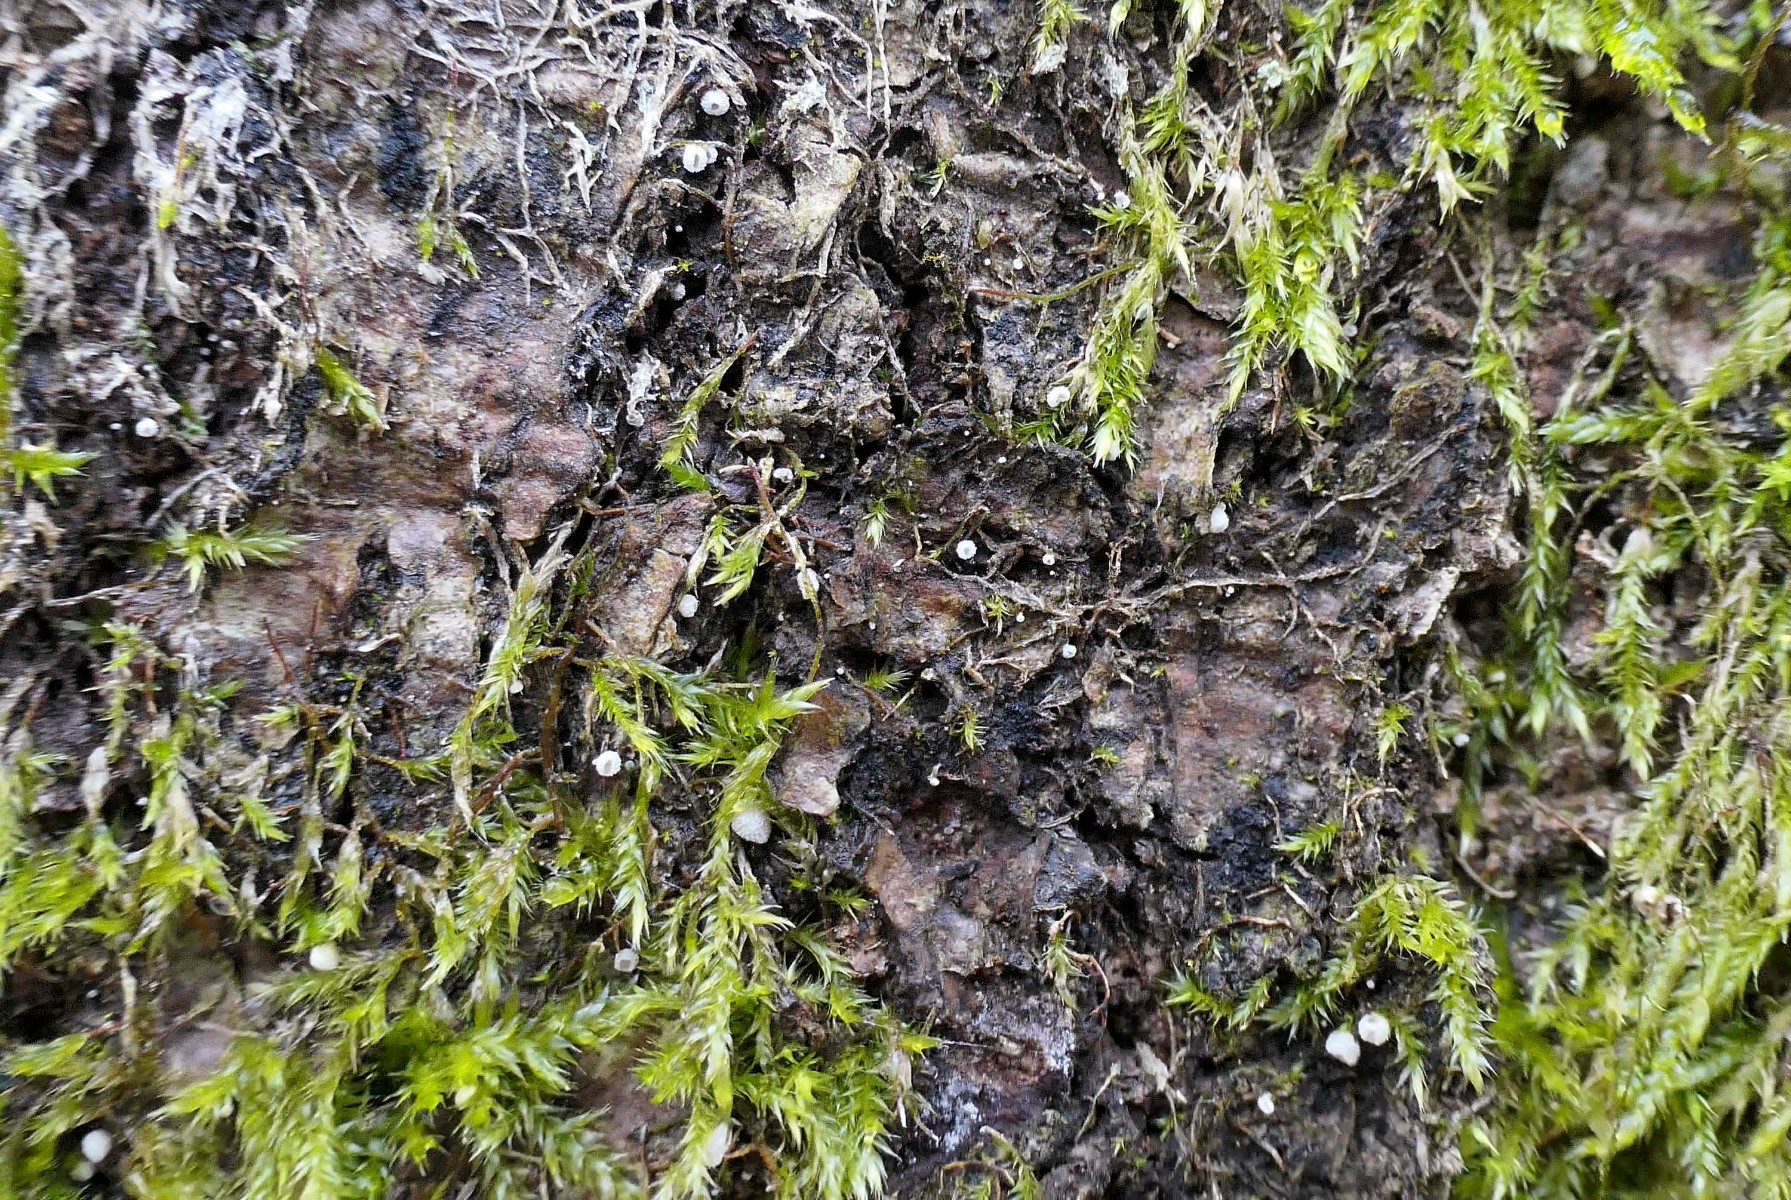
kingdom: Fungi
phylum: Basidiomycota
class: Agaricomycetes
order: Agaricales
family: Chromocyphellaceae
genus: Chromocyphella
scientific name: Chromocyphella muscicola
